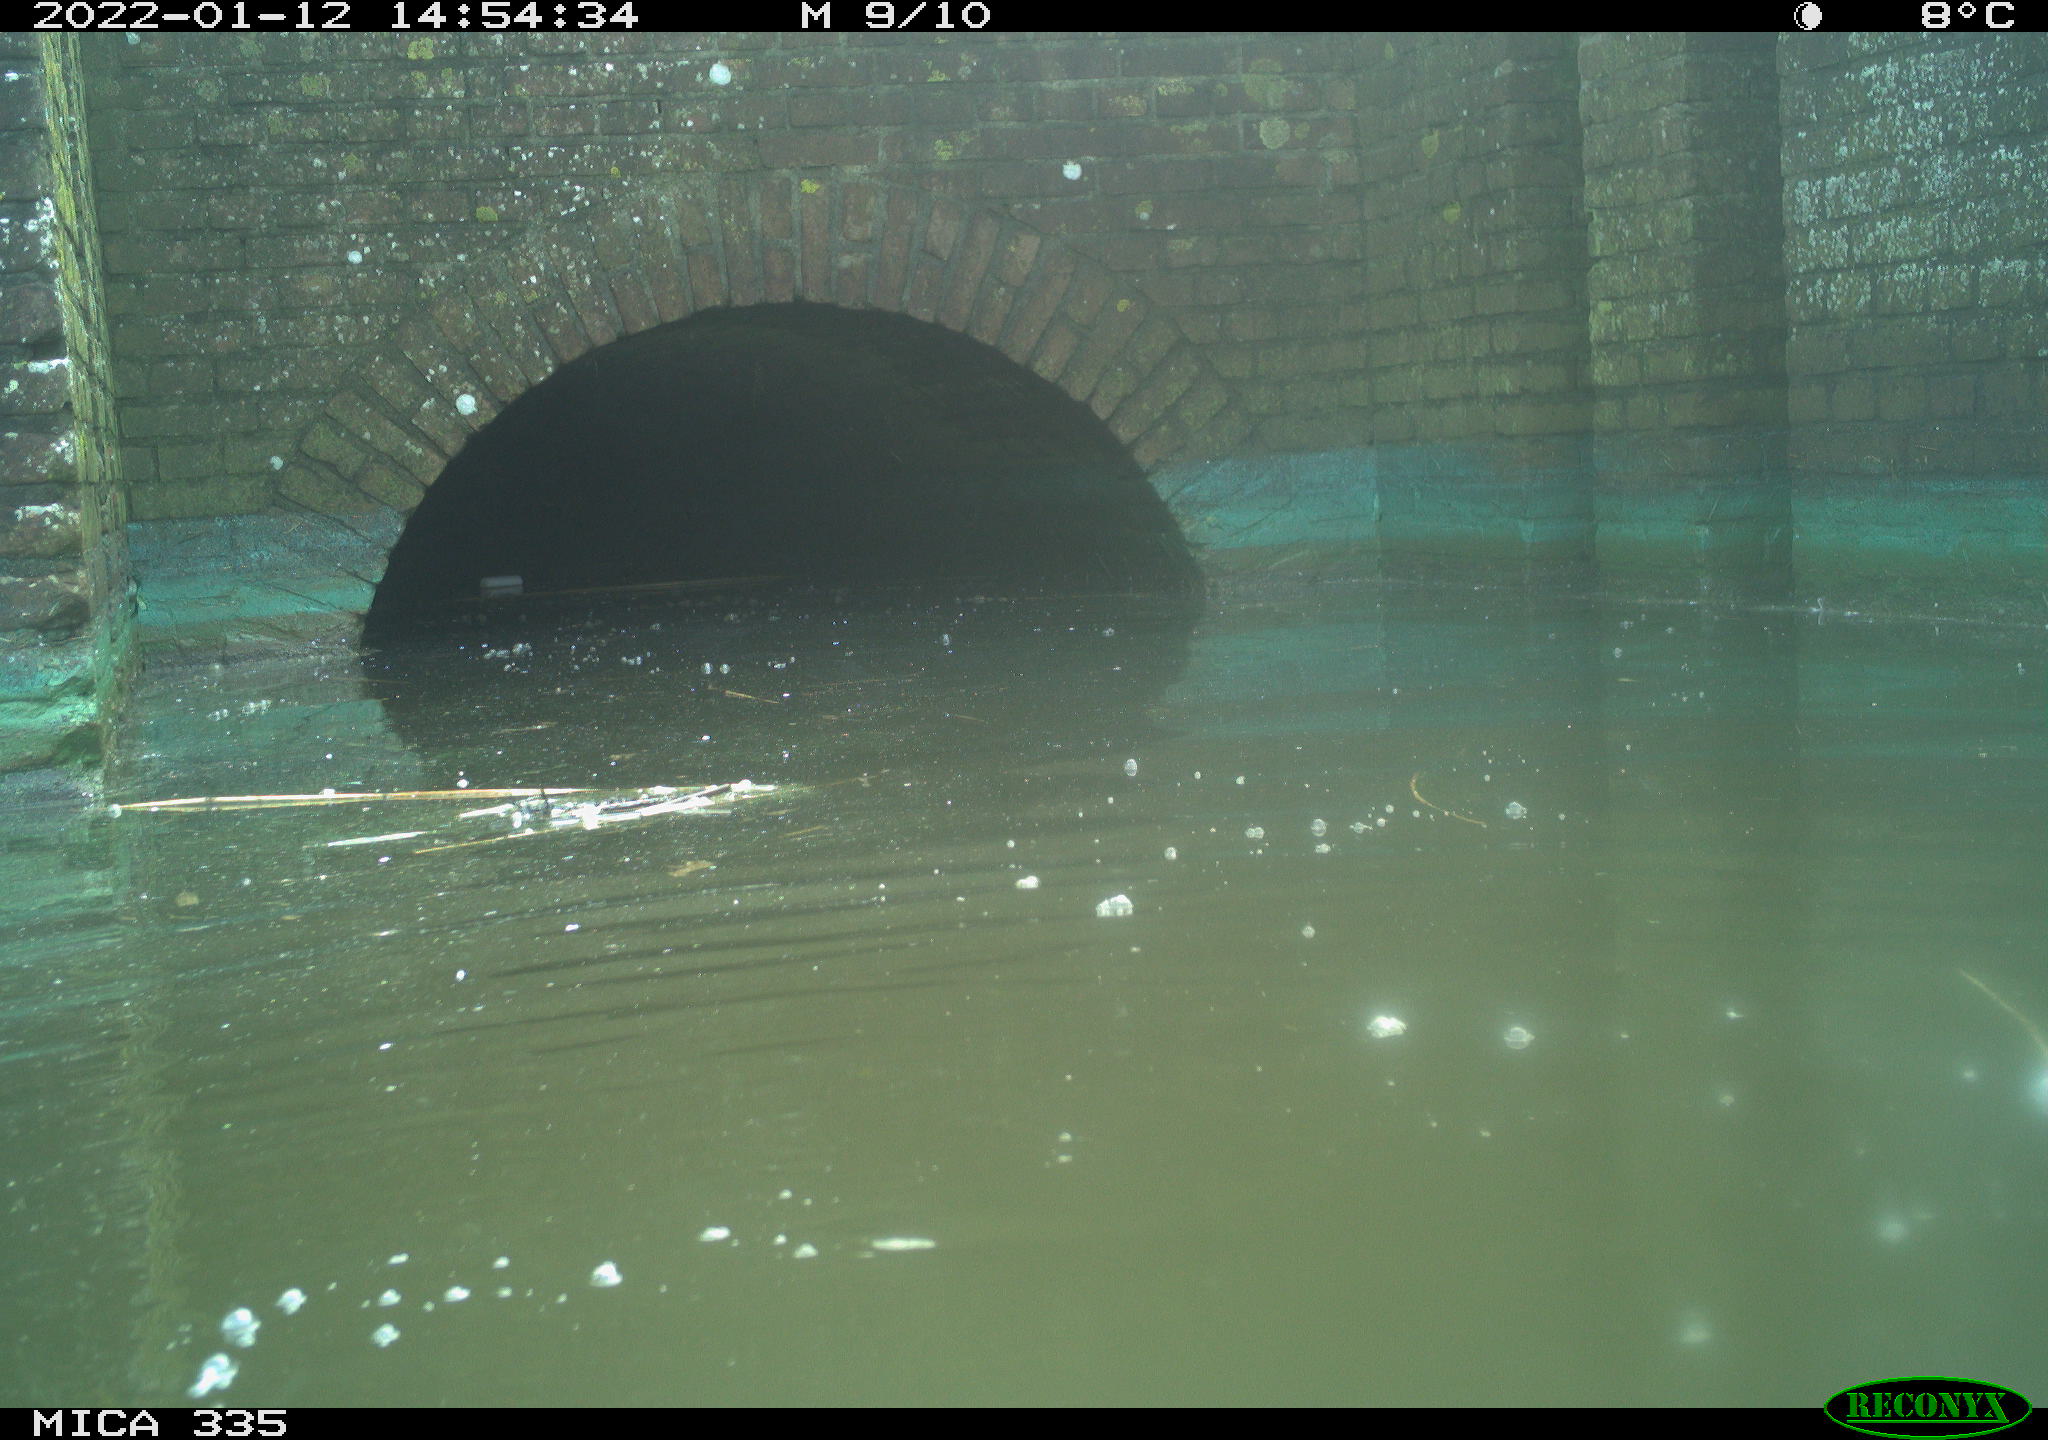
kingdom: Animalia
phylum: Chordata
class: Aves
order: Podicipediformes
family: Podicipedidae
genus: Podiceps
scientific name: Podiceps cristatus
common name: Great crested grebe
